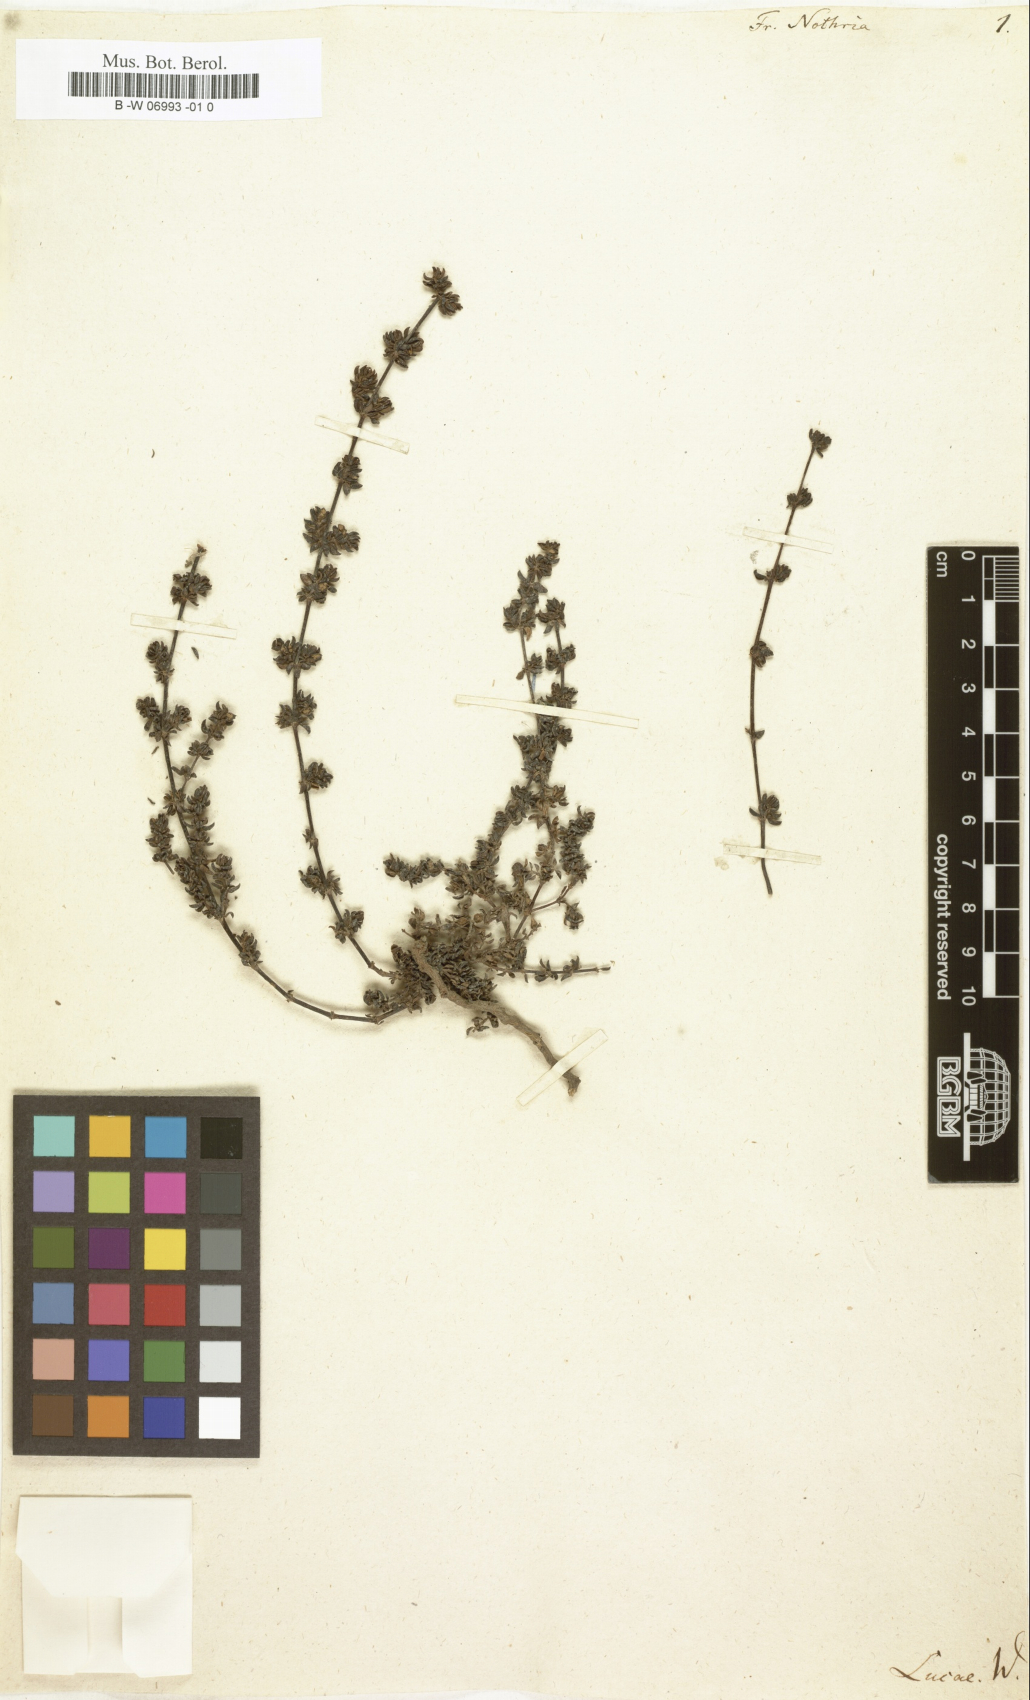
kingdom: Plantae
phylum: Tracheophyta
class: Magnoliopsida
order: Caryophyllales
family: Frankeniaceae
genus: Frankenia
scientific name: Frankenia repens
